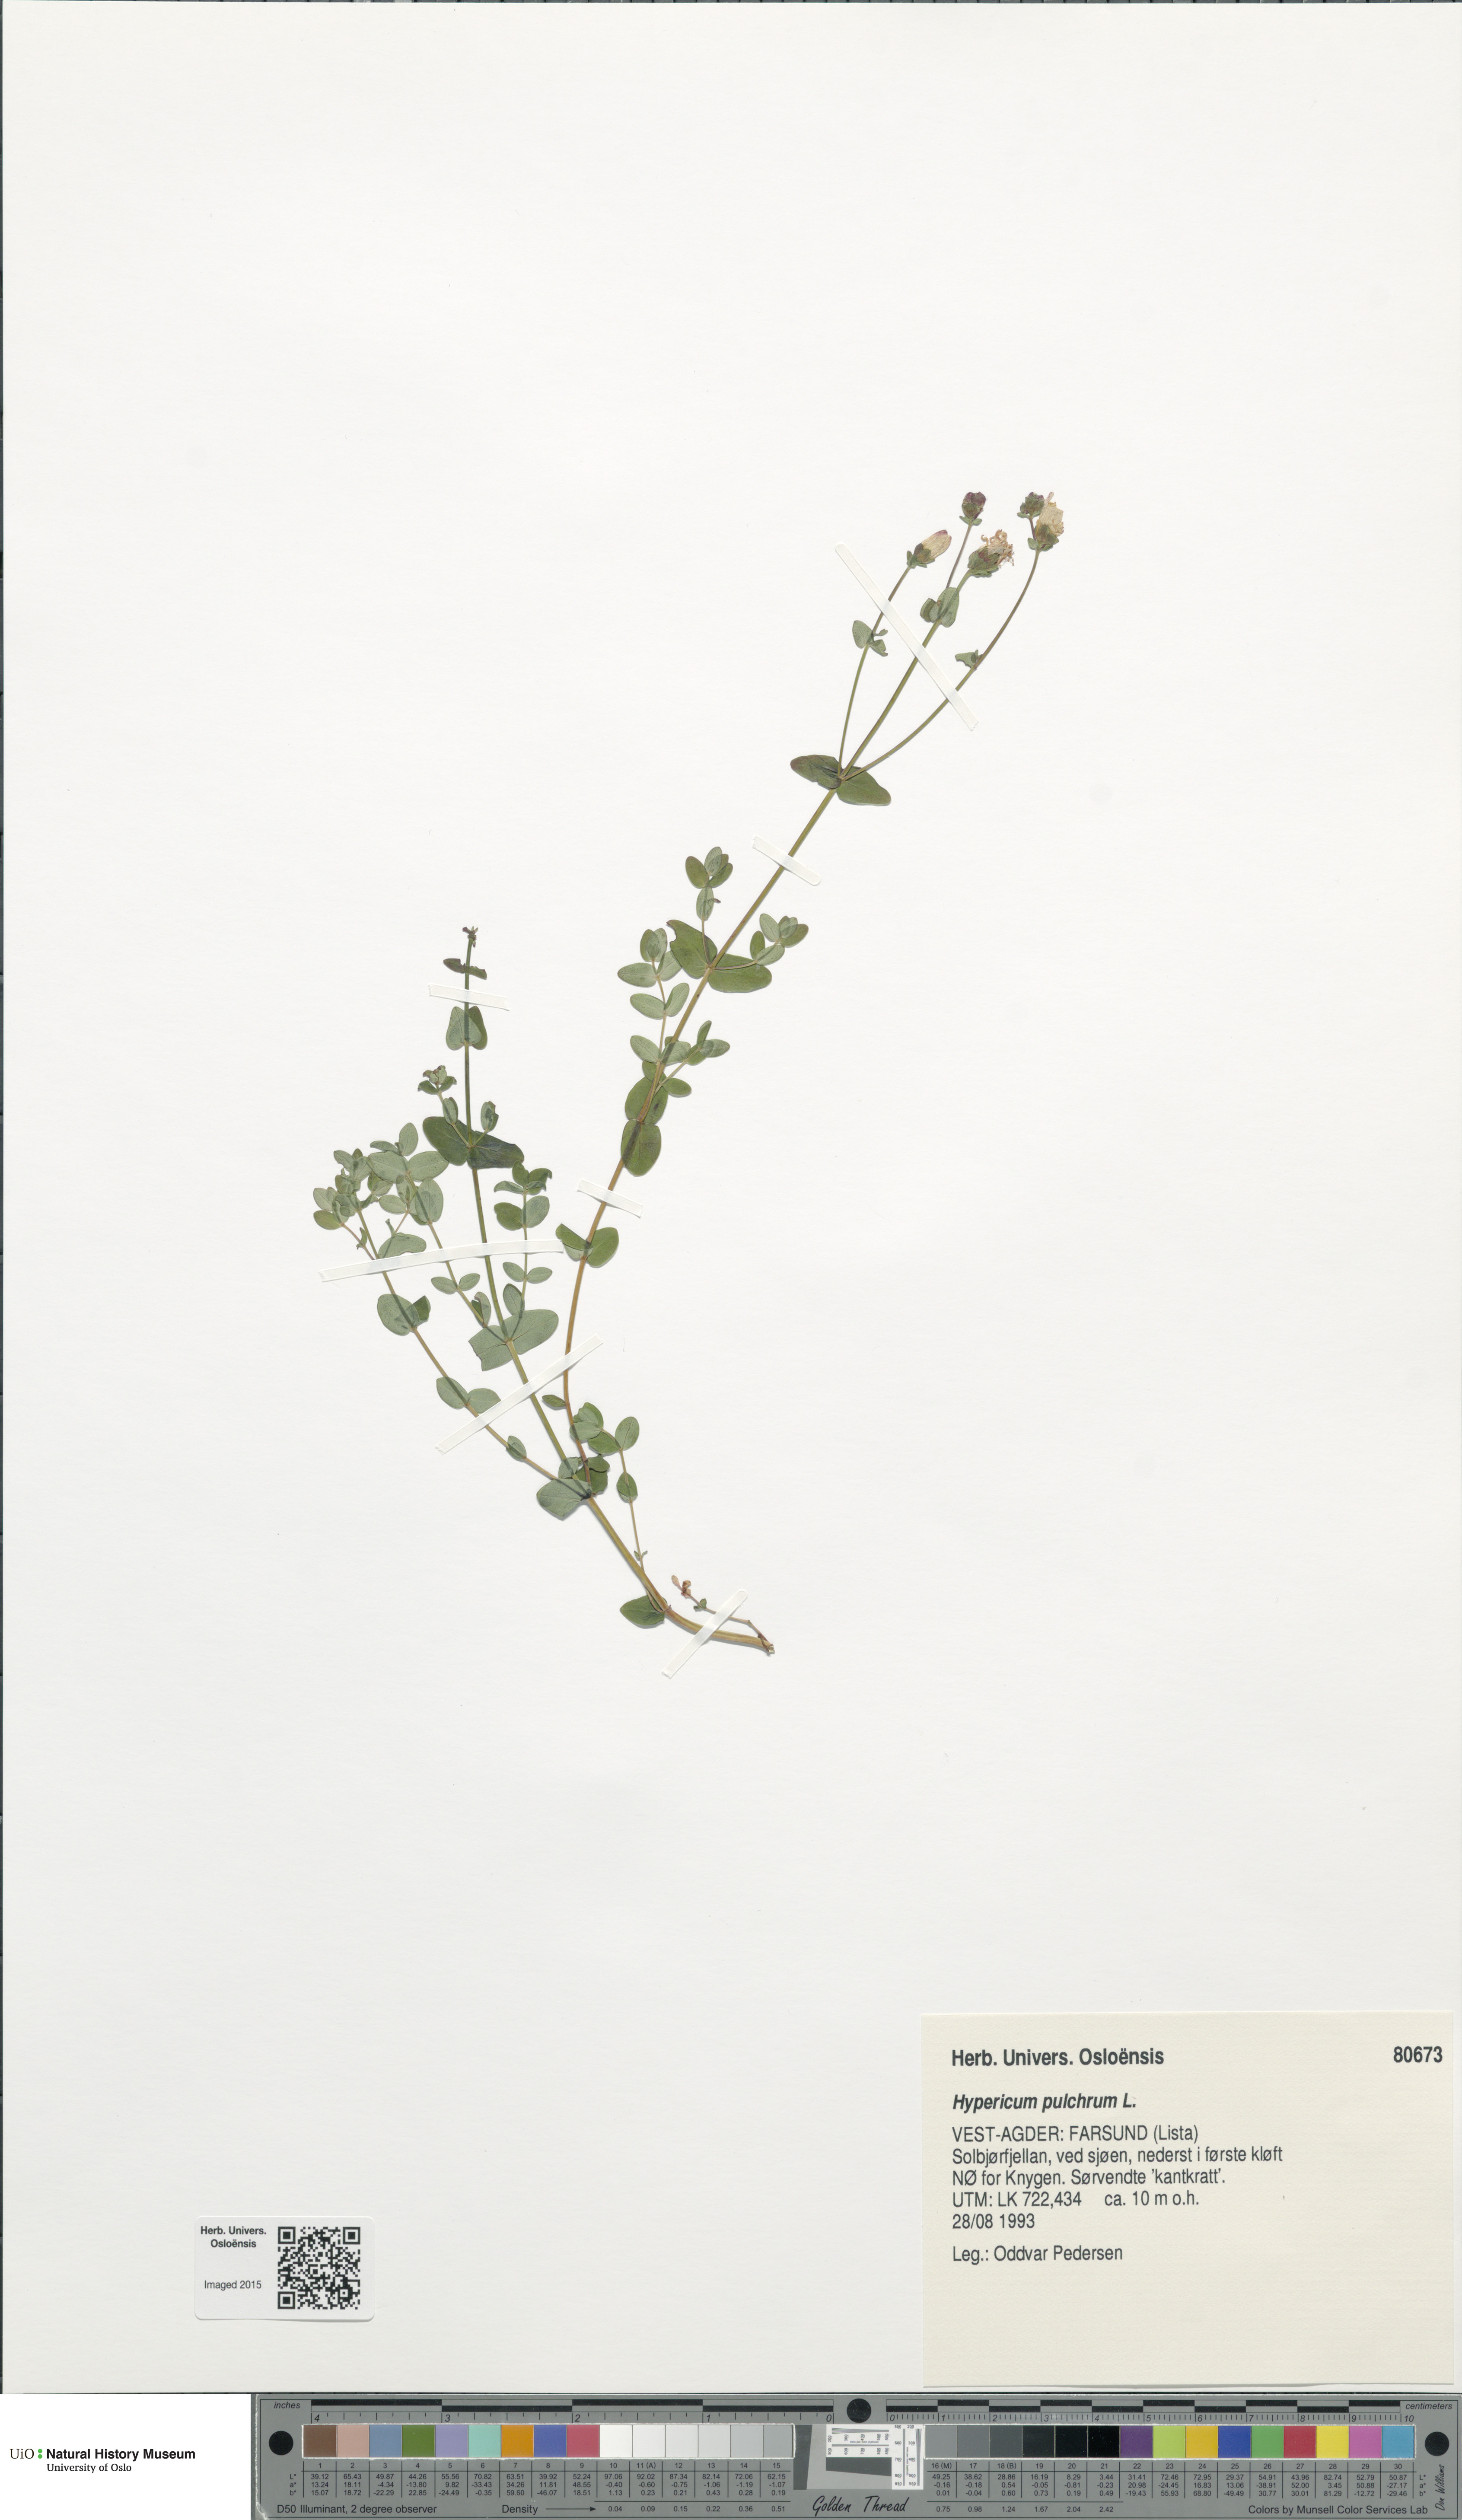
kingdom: Plantae
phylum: Tracheophyta
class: Magnoliopsida
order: Malpighiales
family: Hypericaceae
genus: Hypericum
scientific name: Hypericum pulchrum
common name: Slender st. john's-wort
